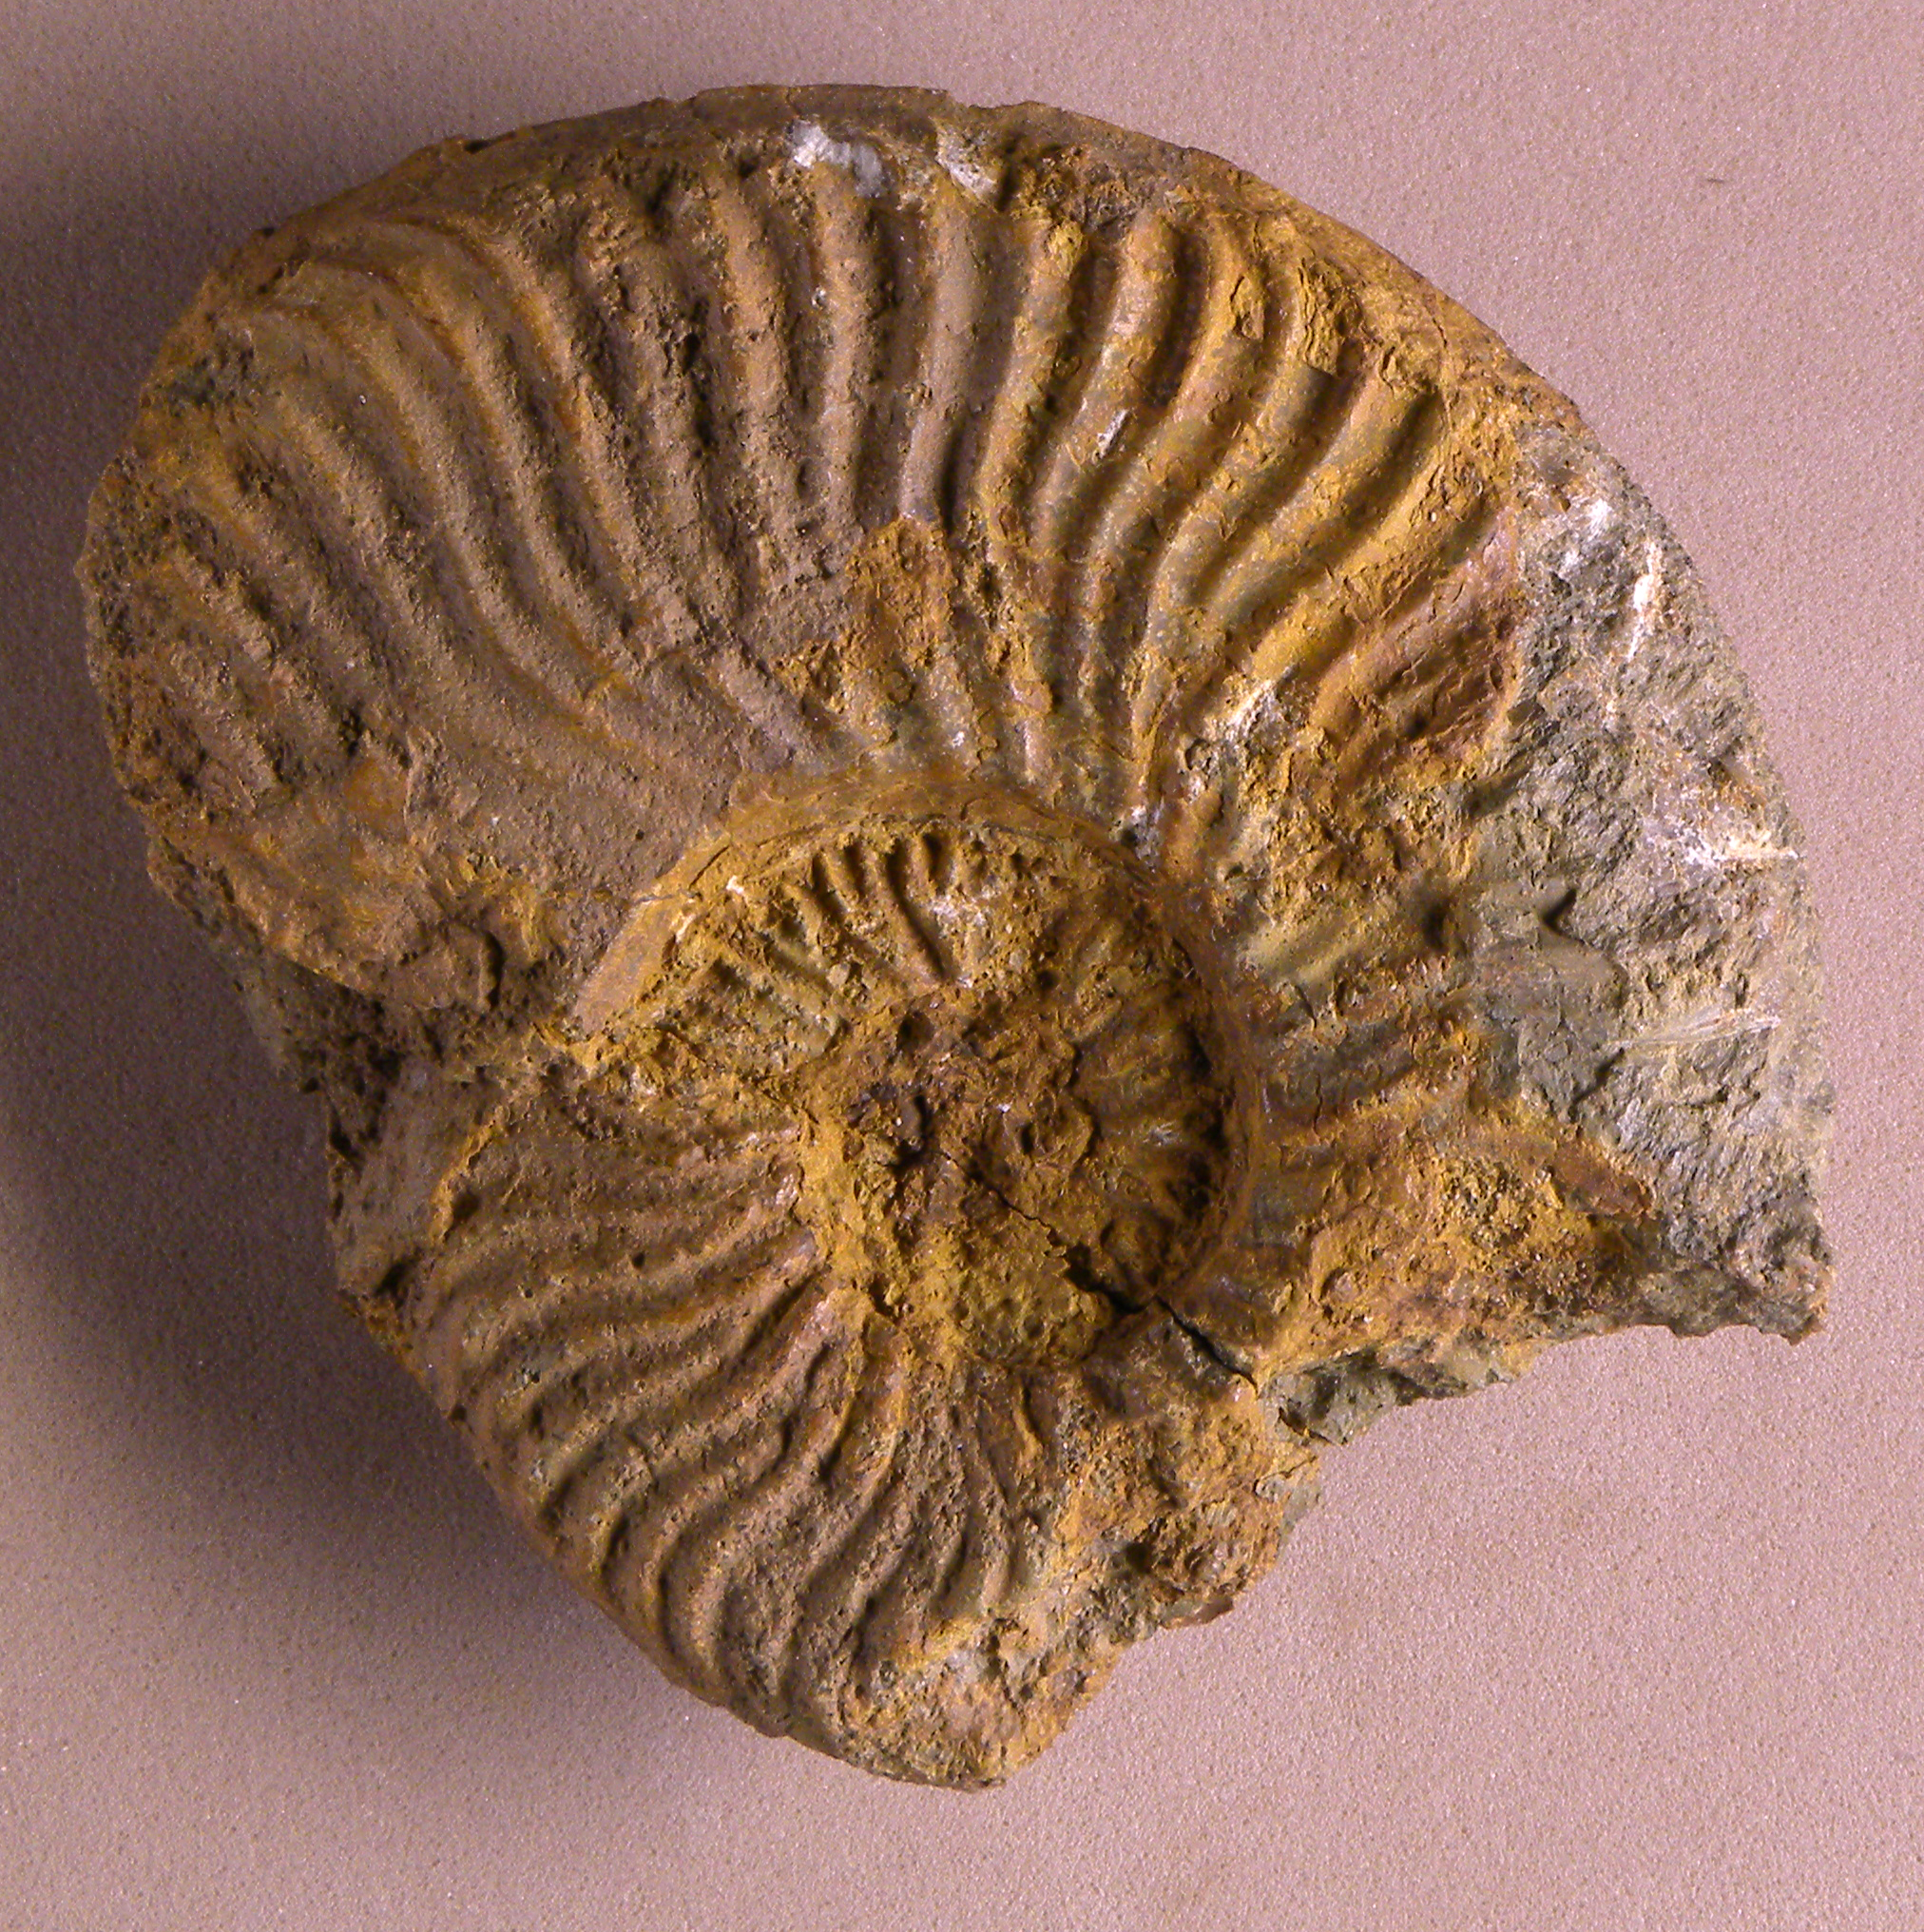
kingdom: Animalia
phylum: Mollusca
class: Cephalopoda
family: Graphoceratidae
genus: Cylicoceras
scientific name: Cylicoceras
